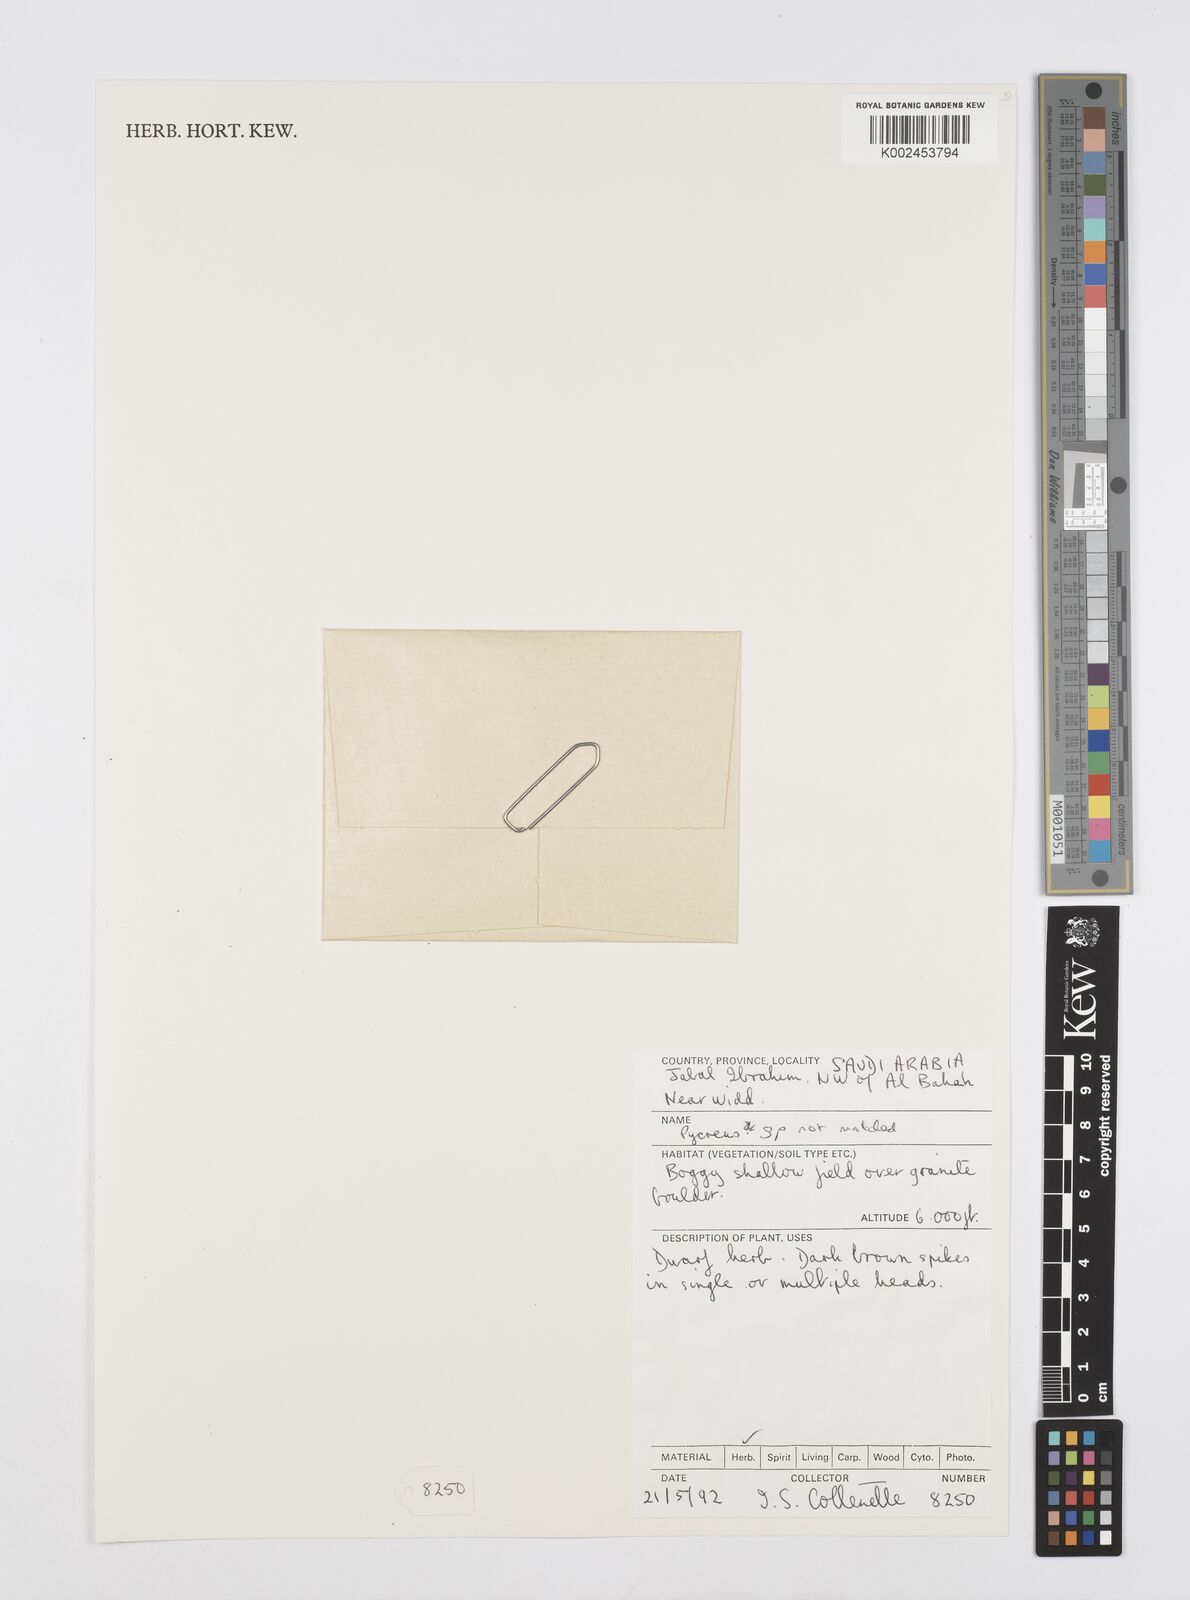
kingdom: Plantae
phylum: Tracheophyta
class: Liliopsida
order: Poales
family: Cyperaceae
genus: Cyperus
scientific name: Cyperus
